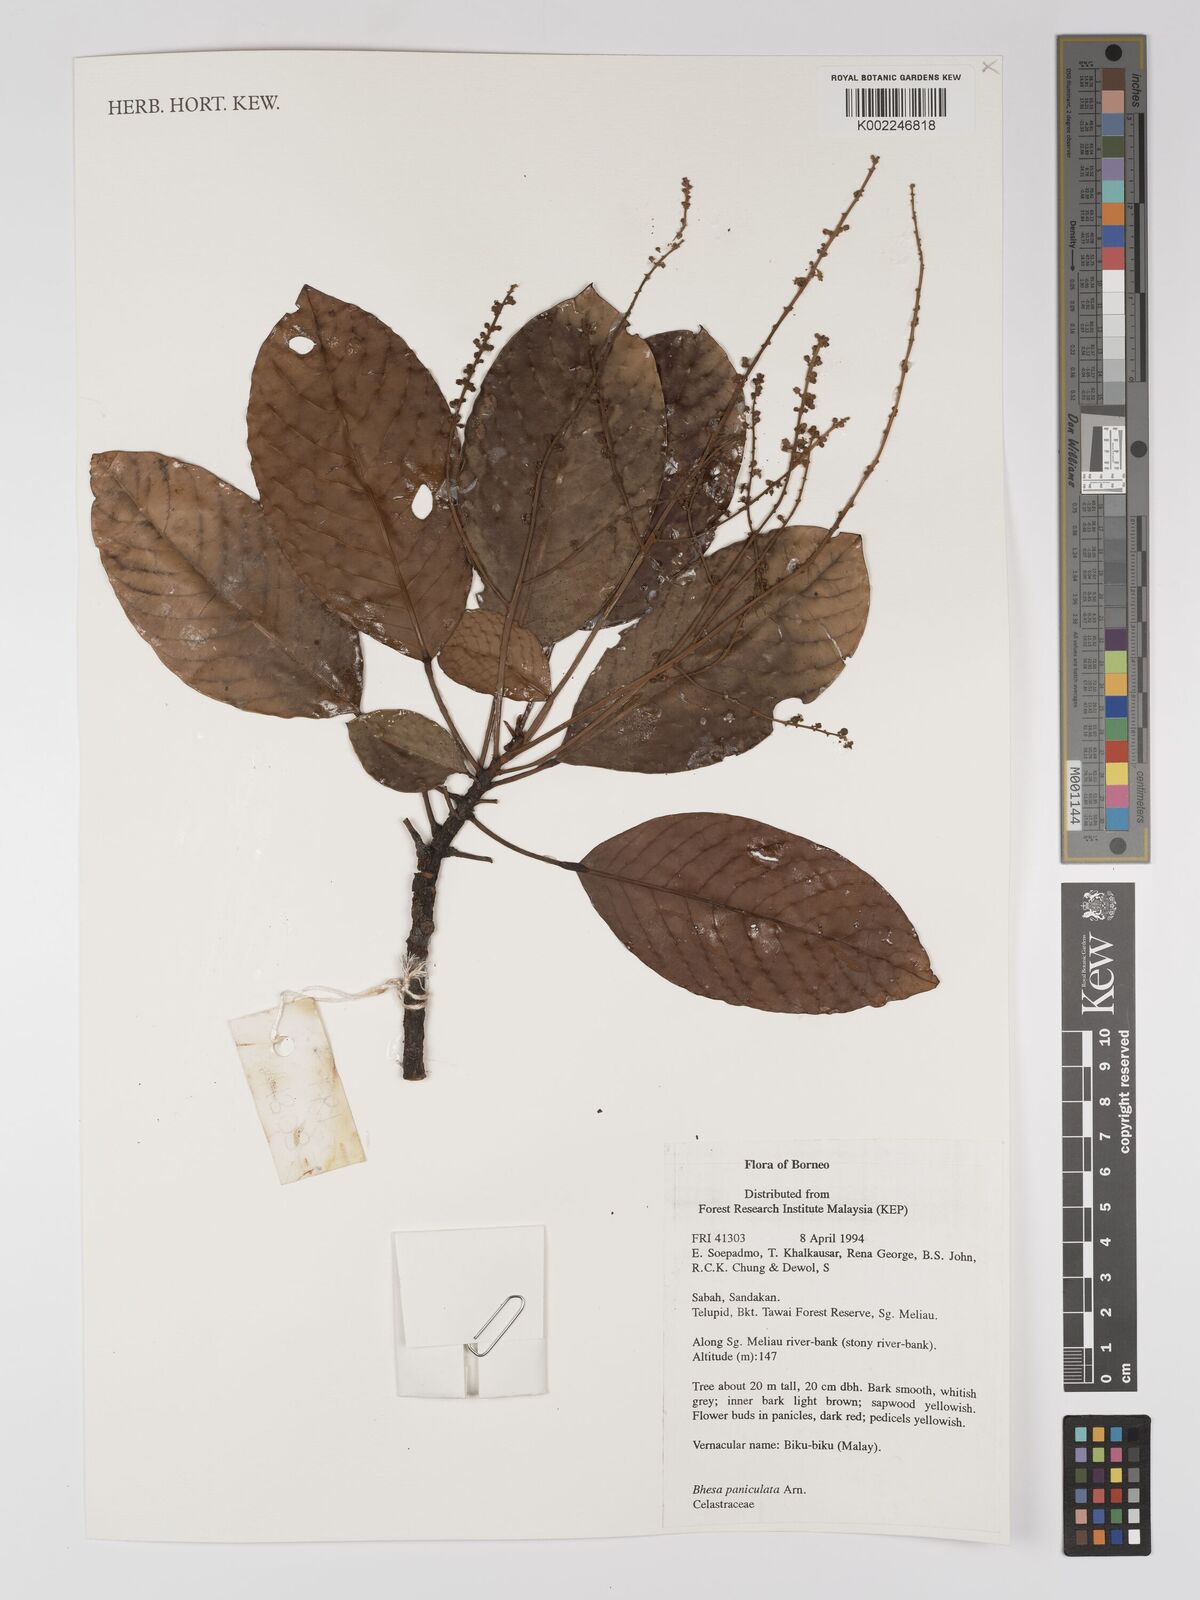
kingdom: Plantae
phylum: Tracheophyta
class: Magnoliopsida
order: Malpighiales
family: Centroplacaceae
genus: Bhesa
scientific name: Bhesa paniculata
